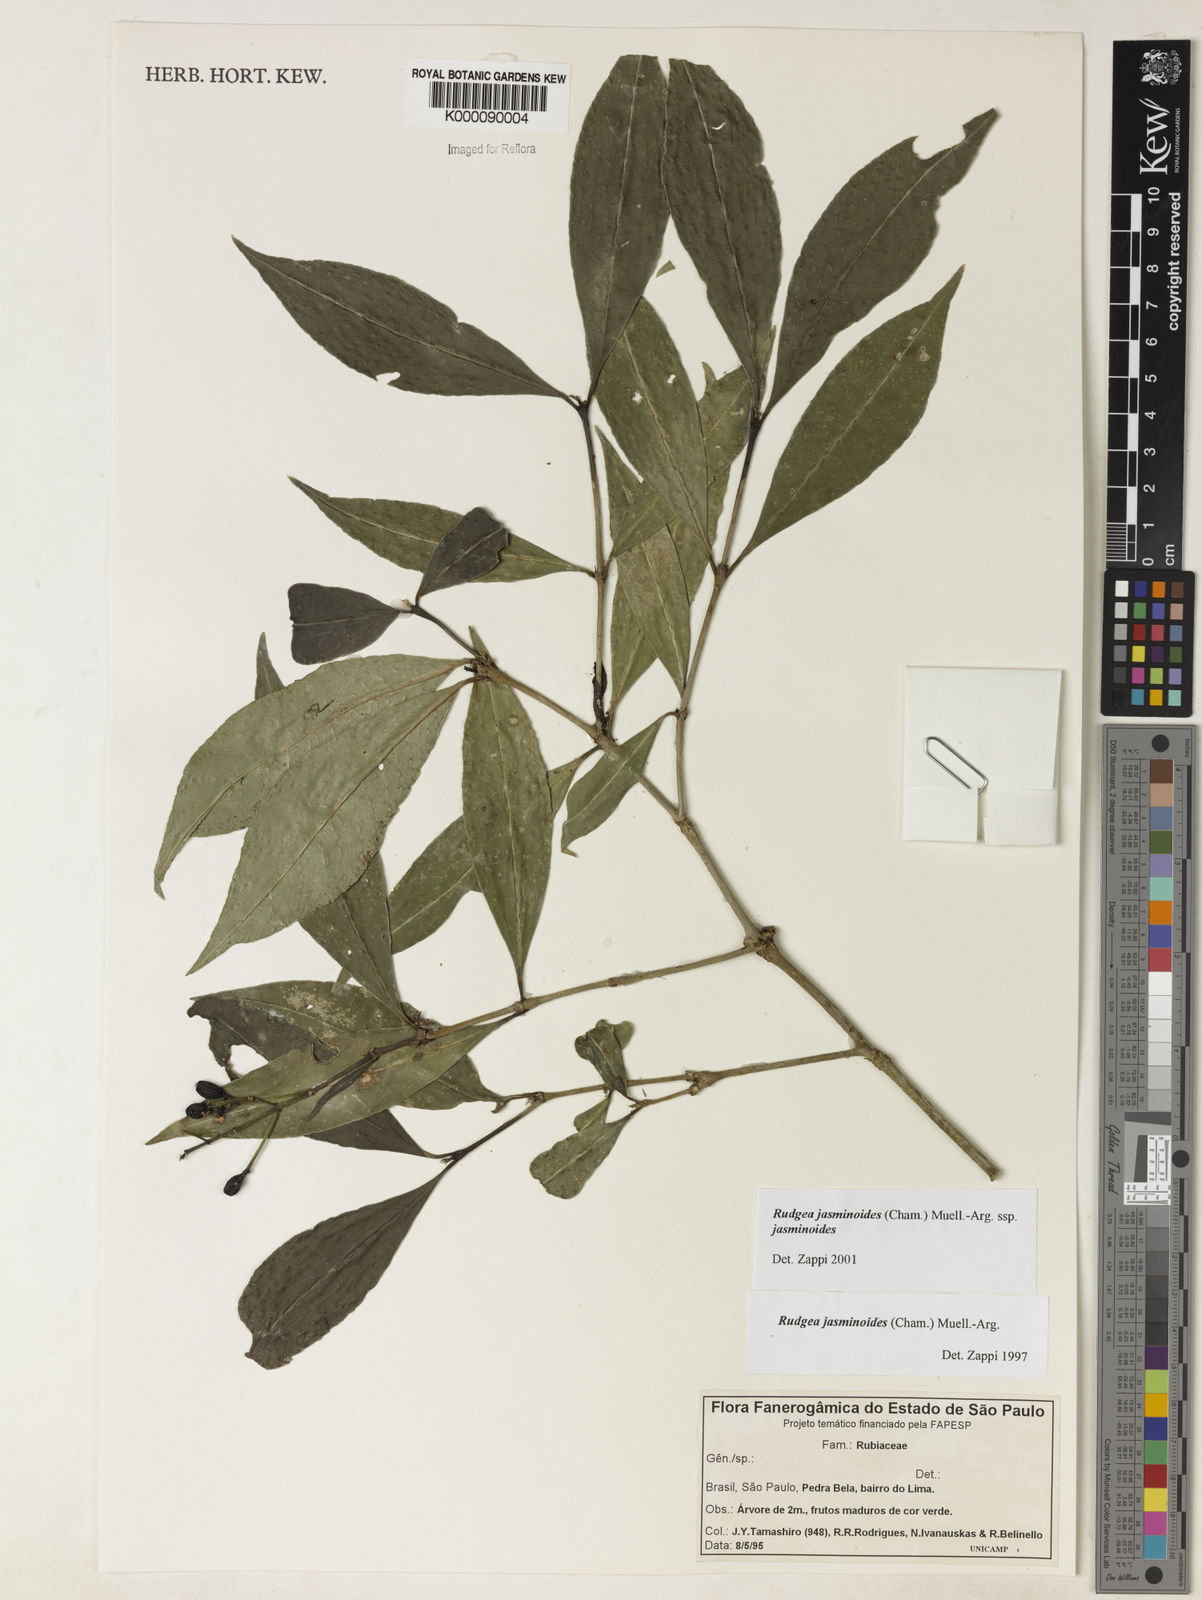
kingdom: Plantae
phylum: Tracheophyta
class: Magnoliopsida
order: Gentianales
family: Rubiaceae
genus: Rudgea
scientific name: Rudgea jasminoides
